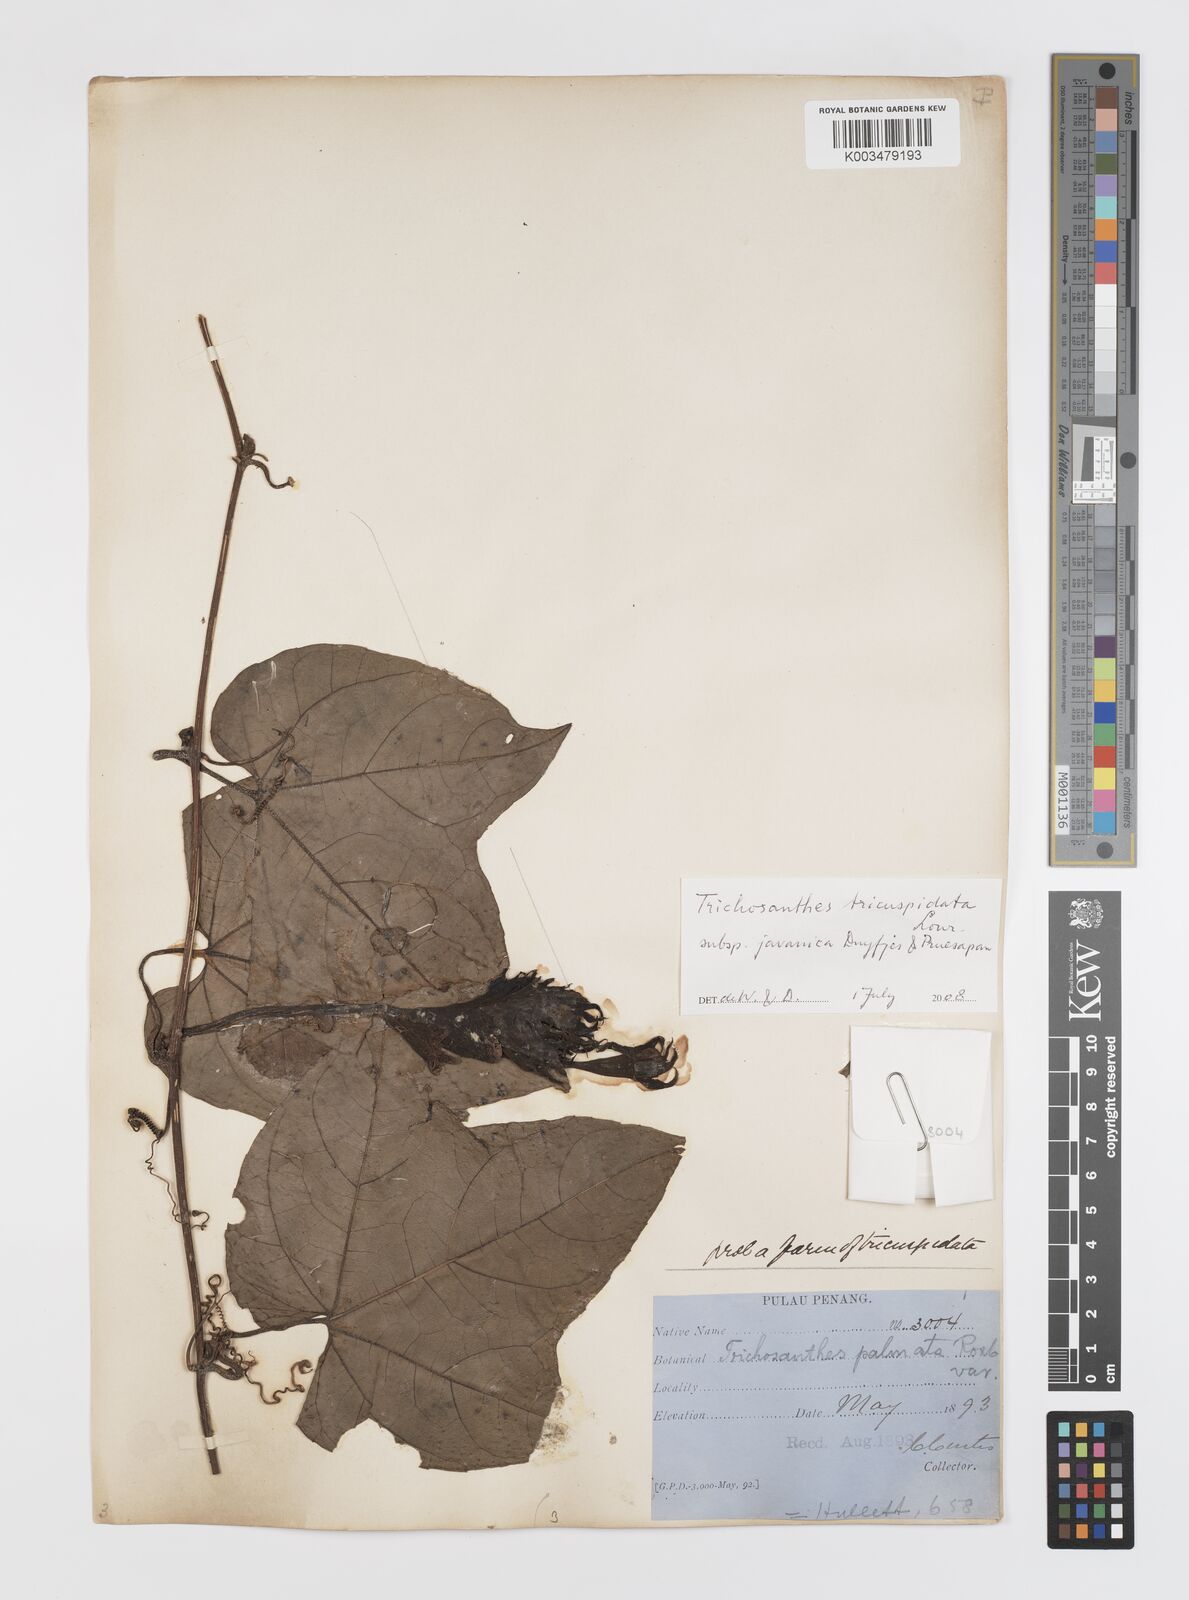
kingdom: Plantae
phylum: Tracheophyta
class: Magnoliopsida
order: Cucurbitales
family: Cucurbitaceae
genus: Trichosanthes
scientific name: Trichosanthes tricuspidata
